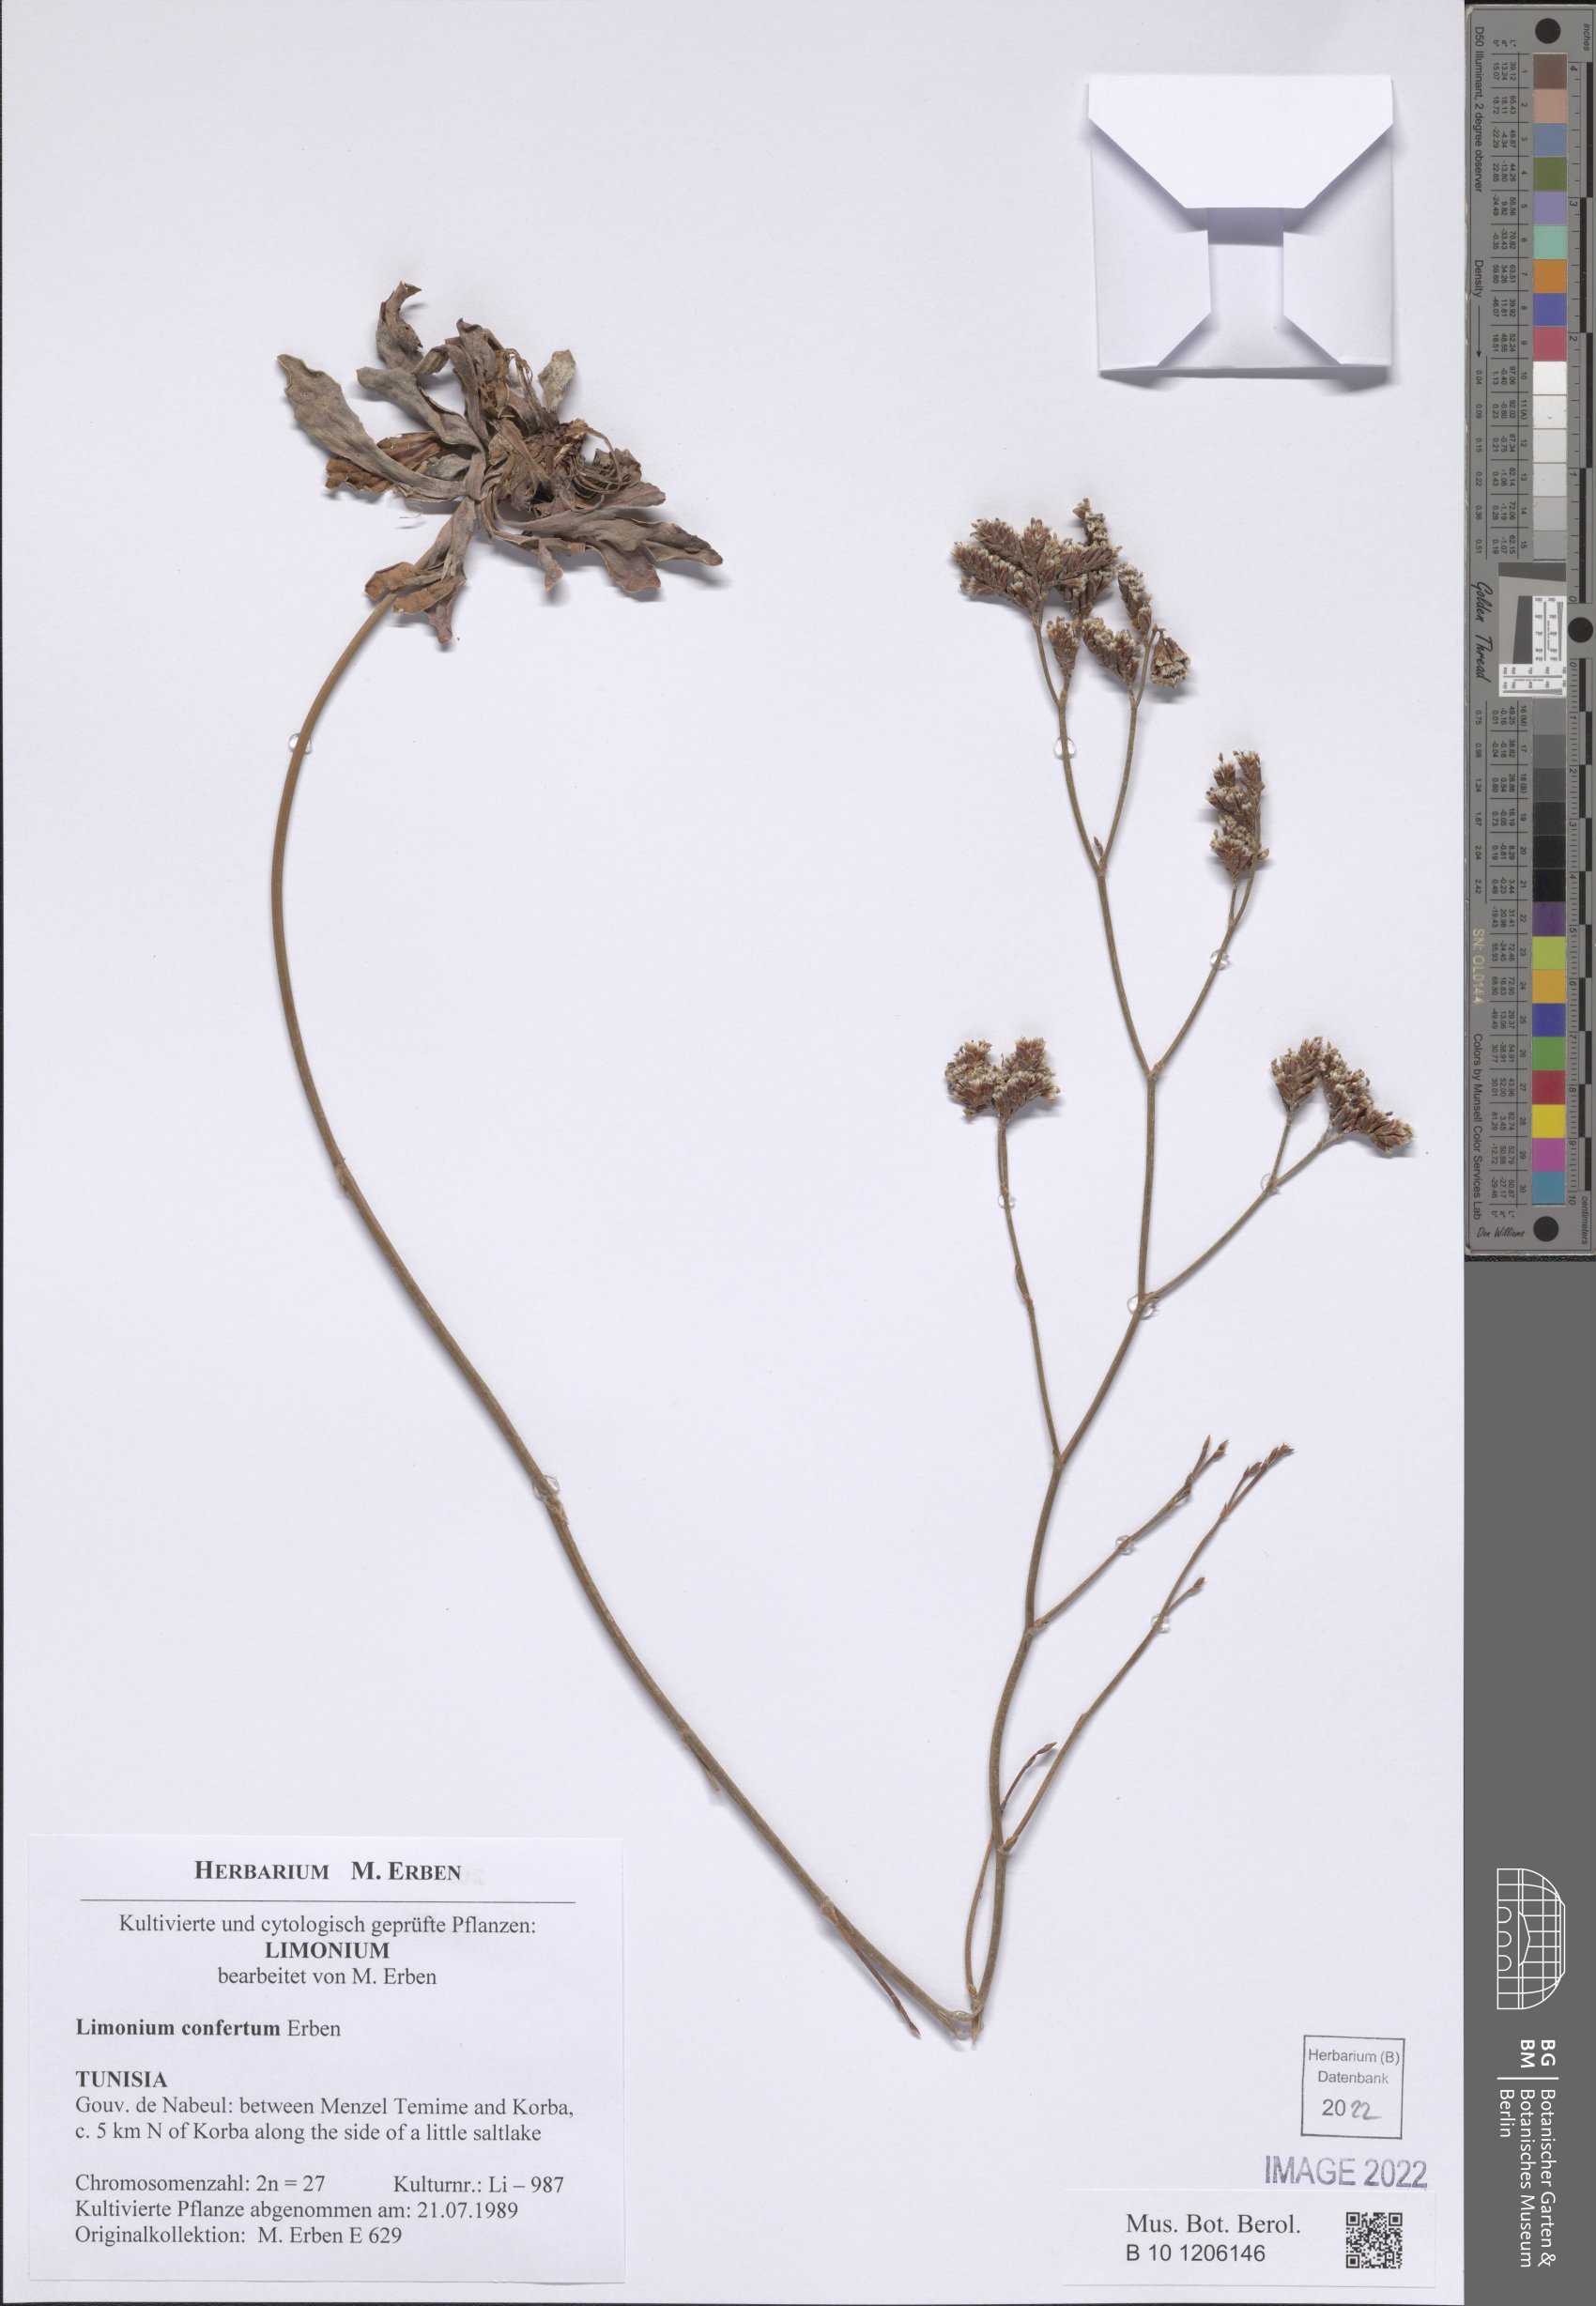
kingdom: Plantae
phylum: Tracheophyta
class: Magnoliopsida
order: Caryophyllales
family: Plumbaginaceae
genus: Limonium
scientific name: Limonium confertum
